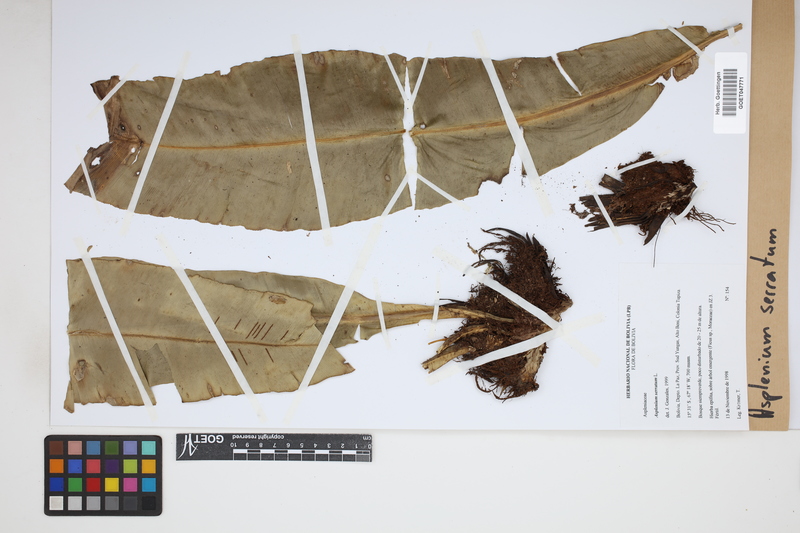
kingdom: Plantae
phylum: Tracheophyta
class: Polypodiopsida
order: Polypodiales
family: Aspleniaceae
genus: Asplenium
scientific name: Asplenium serratum
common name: Wild birdnest fern
